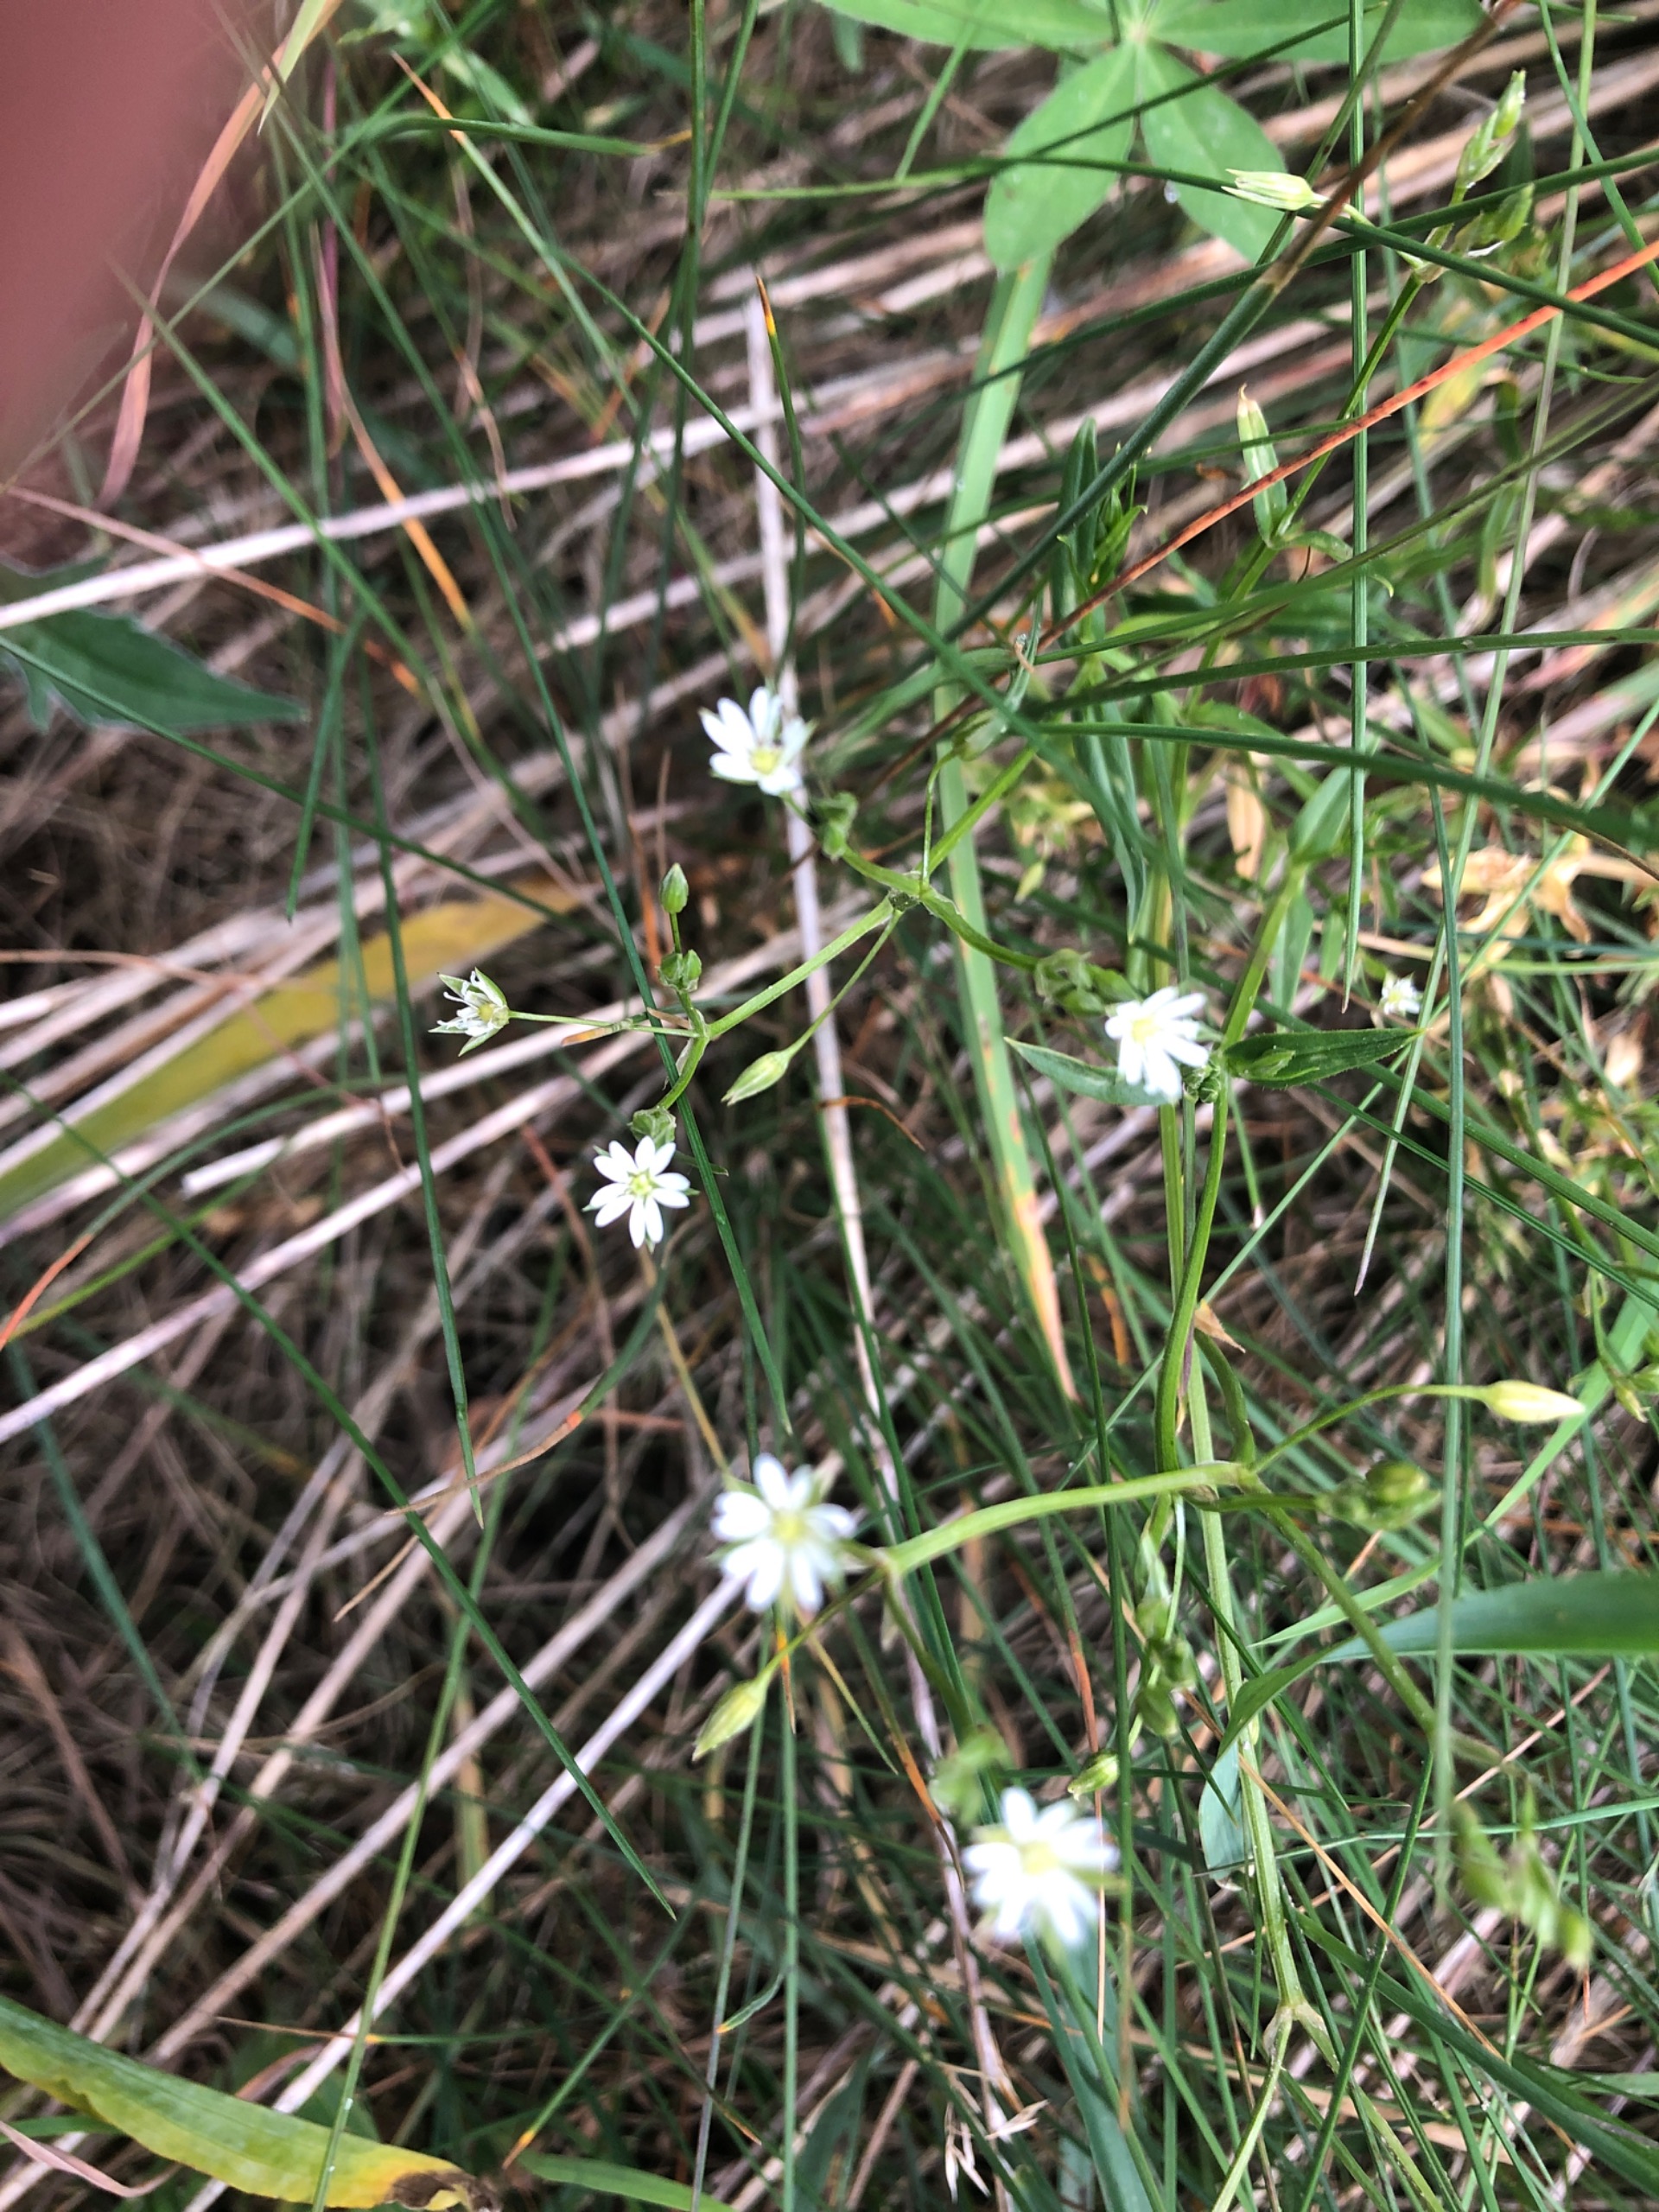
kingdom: Plantae
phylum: Tracheophyta
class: Magnoliopsida
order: Caryophyllales
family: Caryophyllaceae
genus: Stellaria
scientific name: Stellaria graminea
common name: Græsbladet fladstjerne
